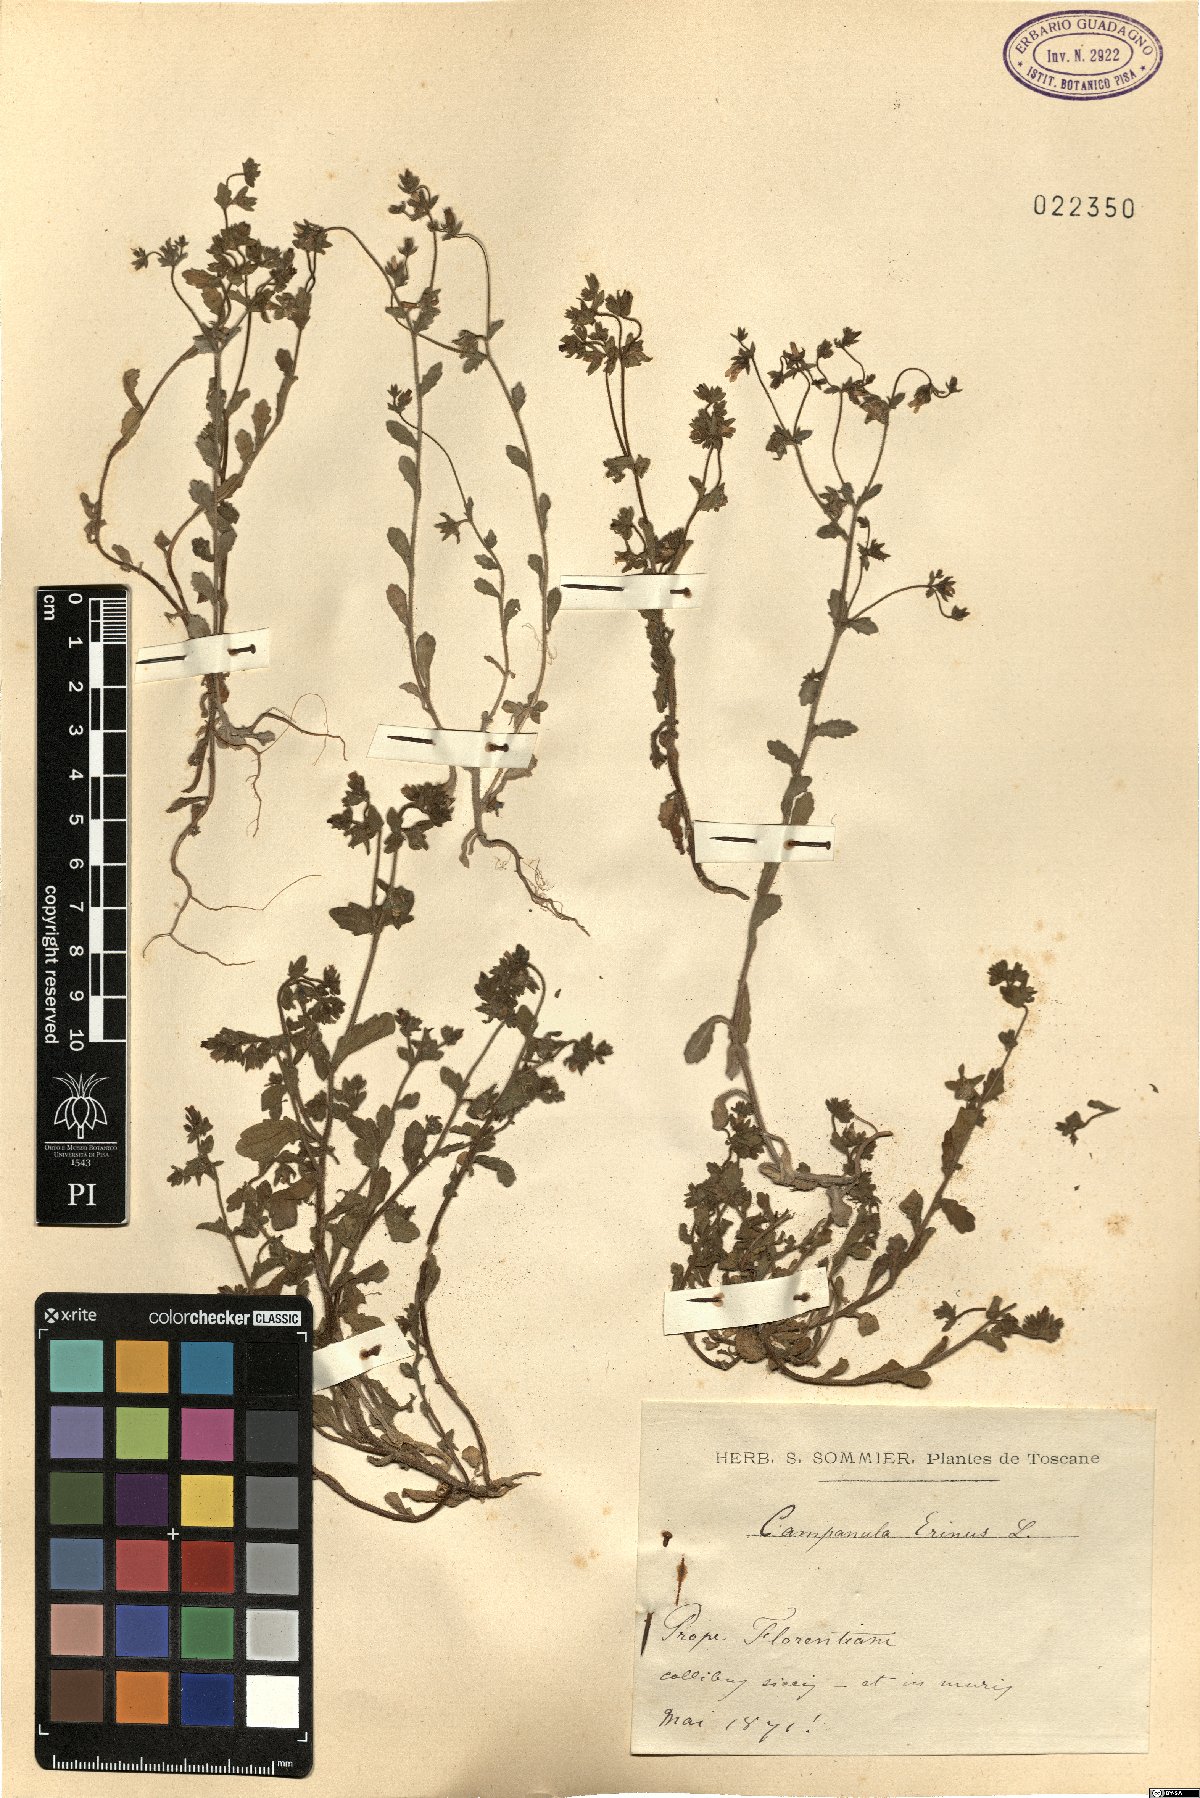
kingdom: Plantae
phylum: Tracheophyta
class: Magnoliopsida
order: Asterales
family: Campanulaceae
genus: Campanula
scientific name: Campanula erinus
